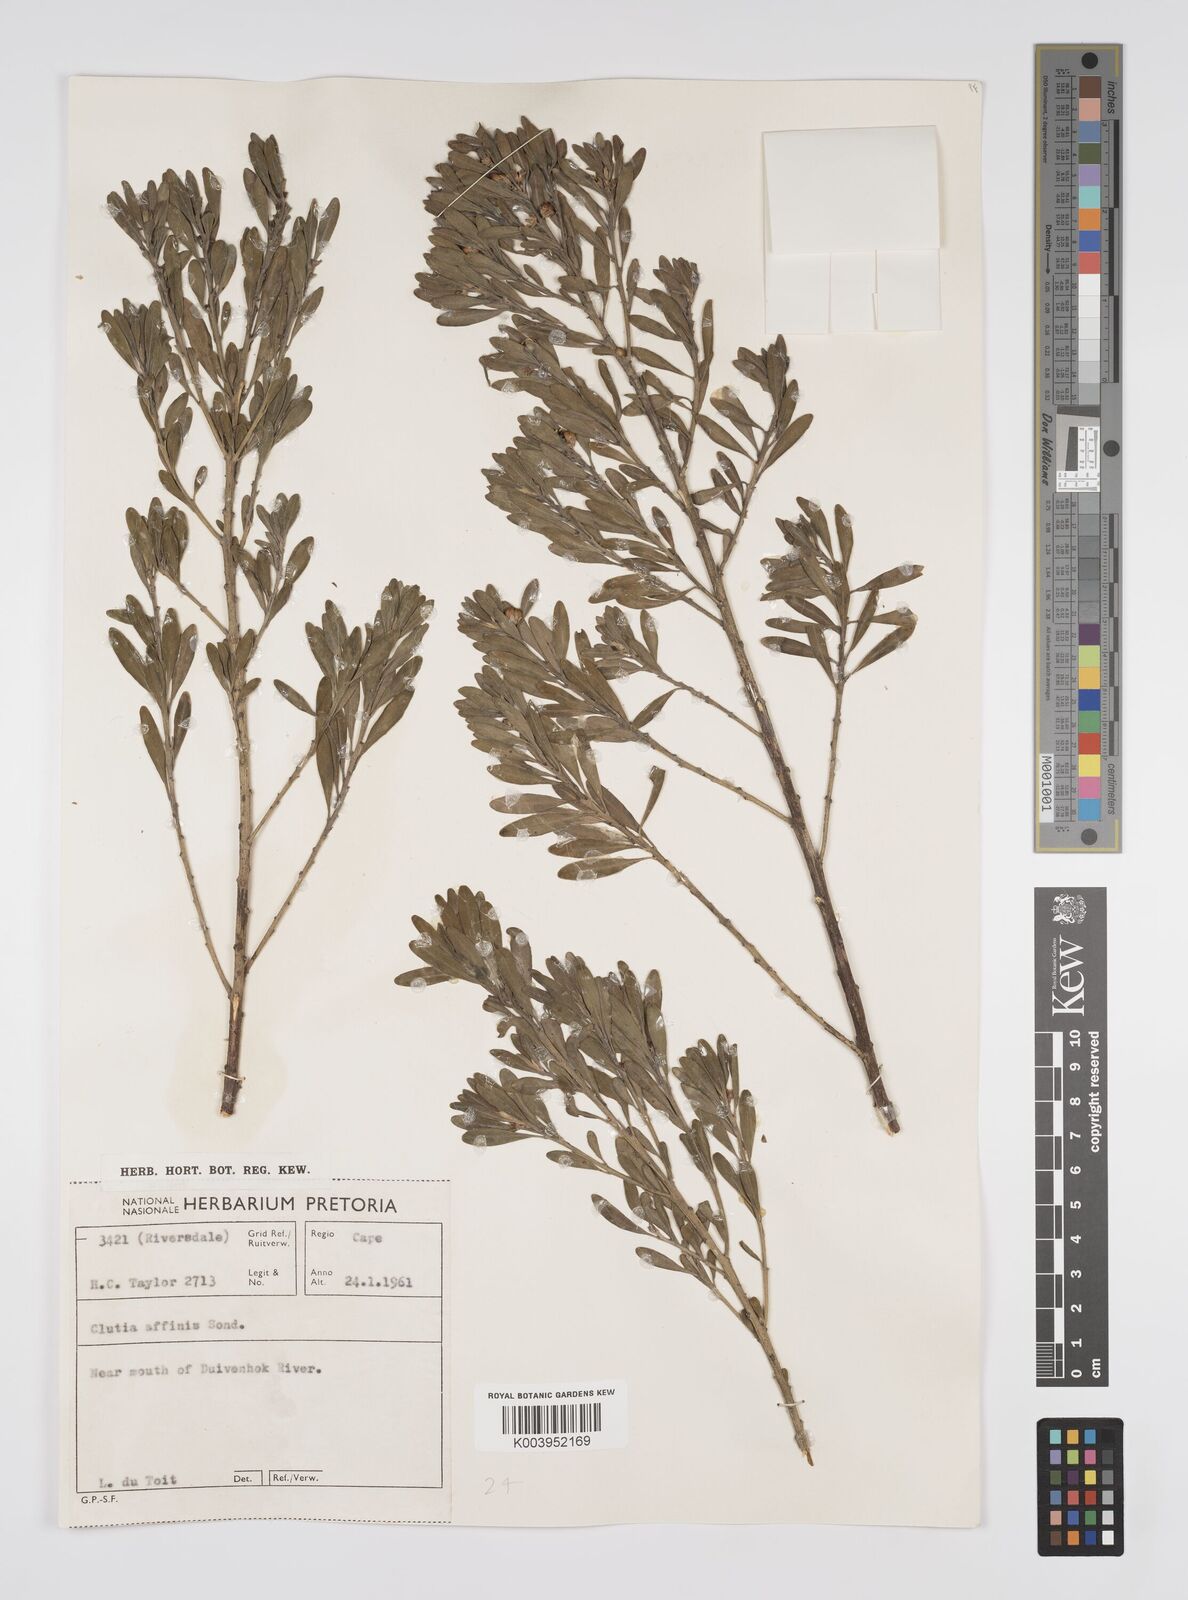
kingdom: Plantae
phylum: Tracheophyta
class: Magnoliopsida
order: Malpighiales
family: Peraceae
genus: Clutia
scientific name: Clutia affinis
